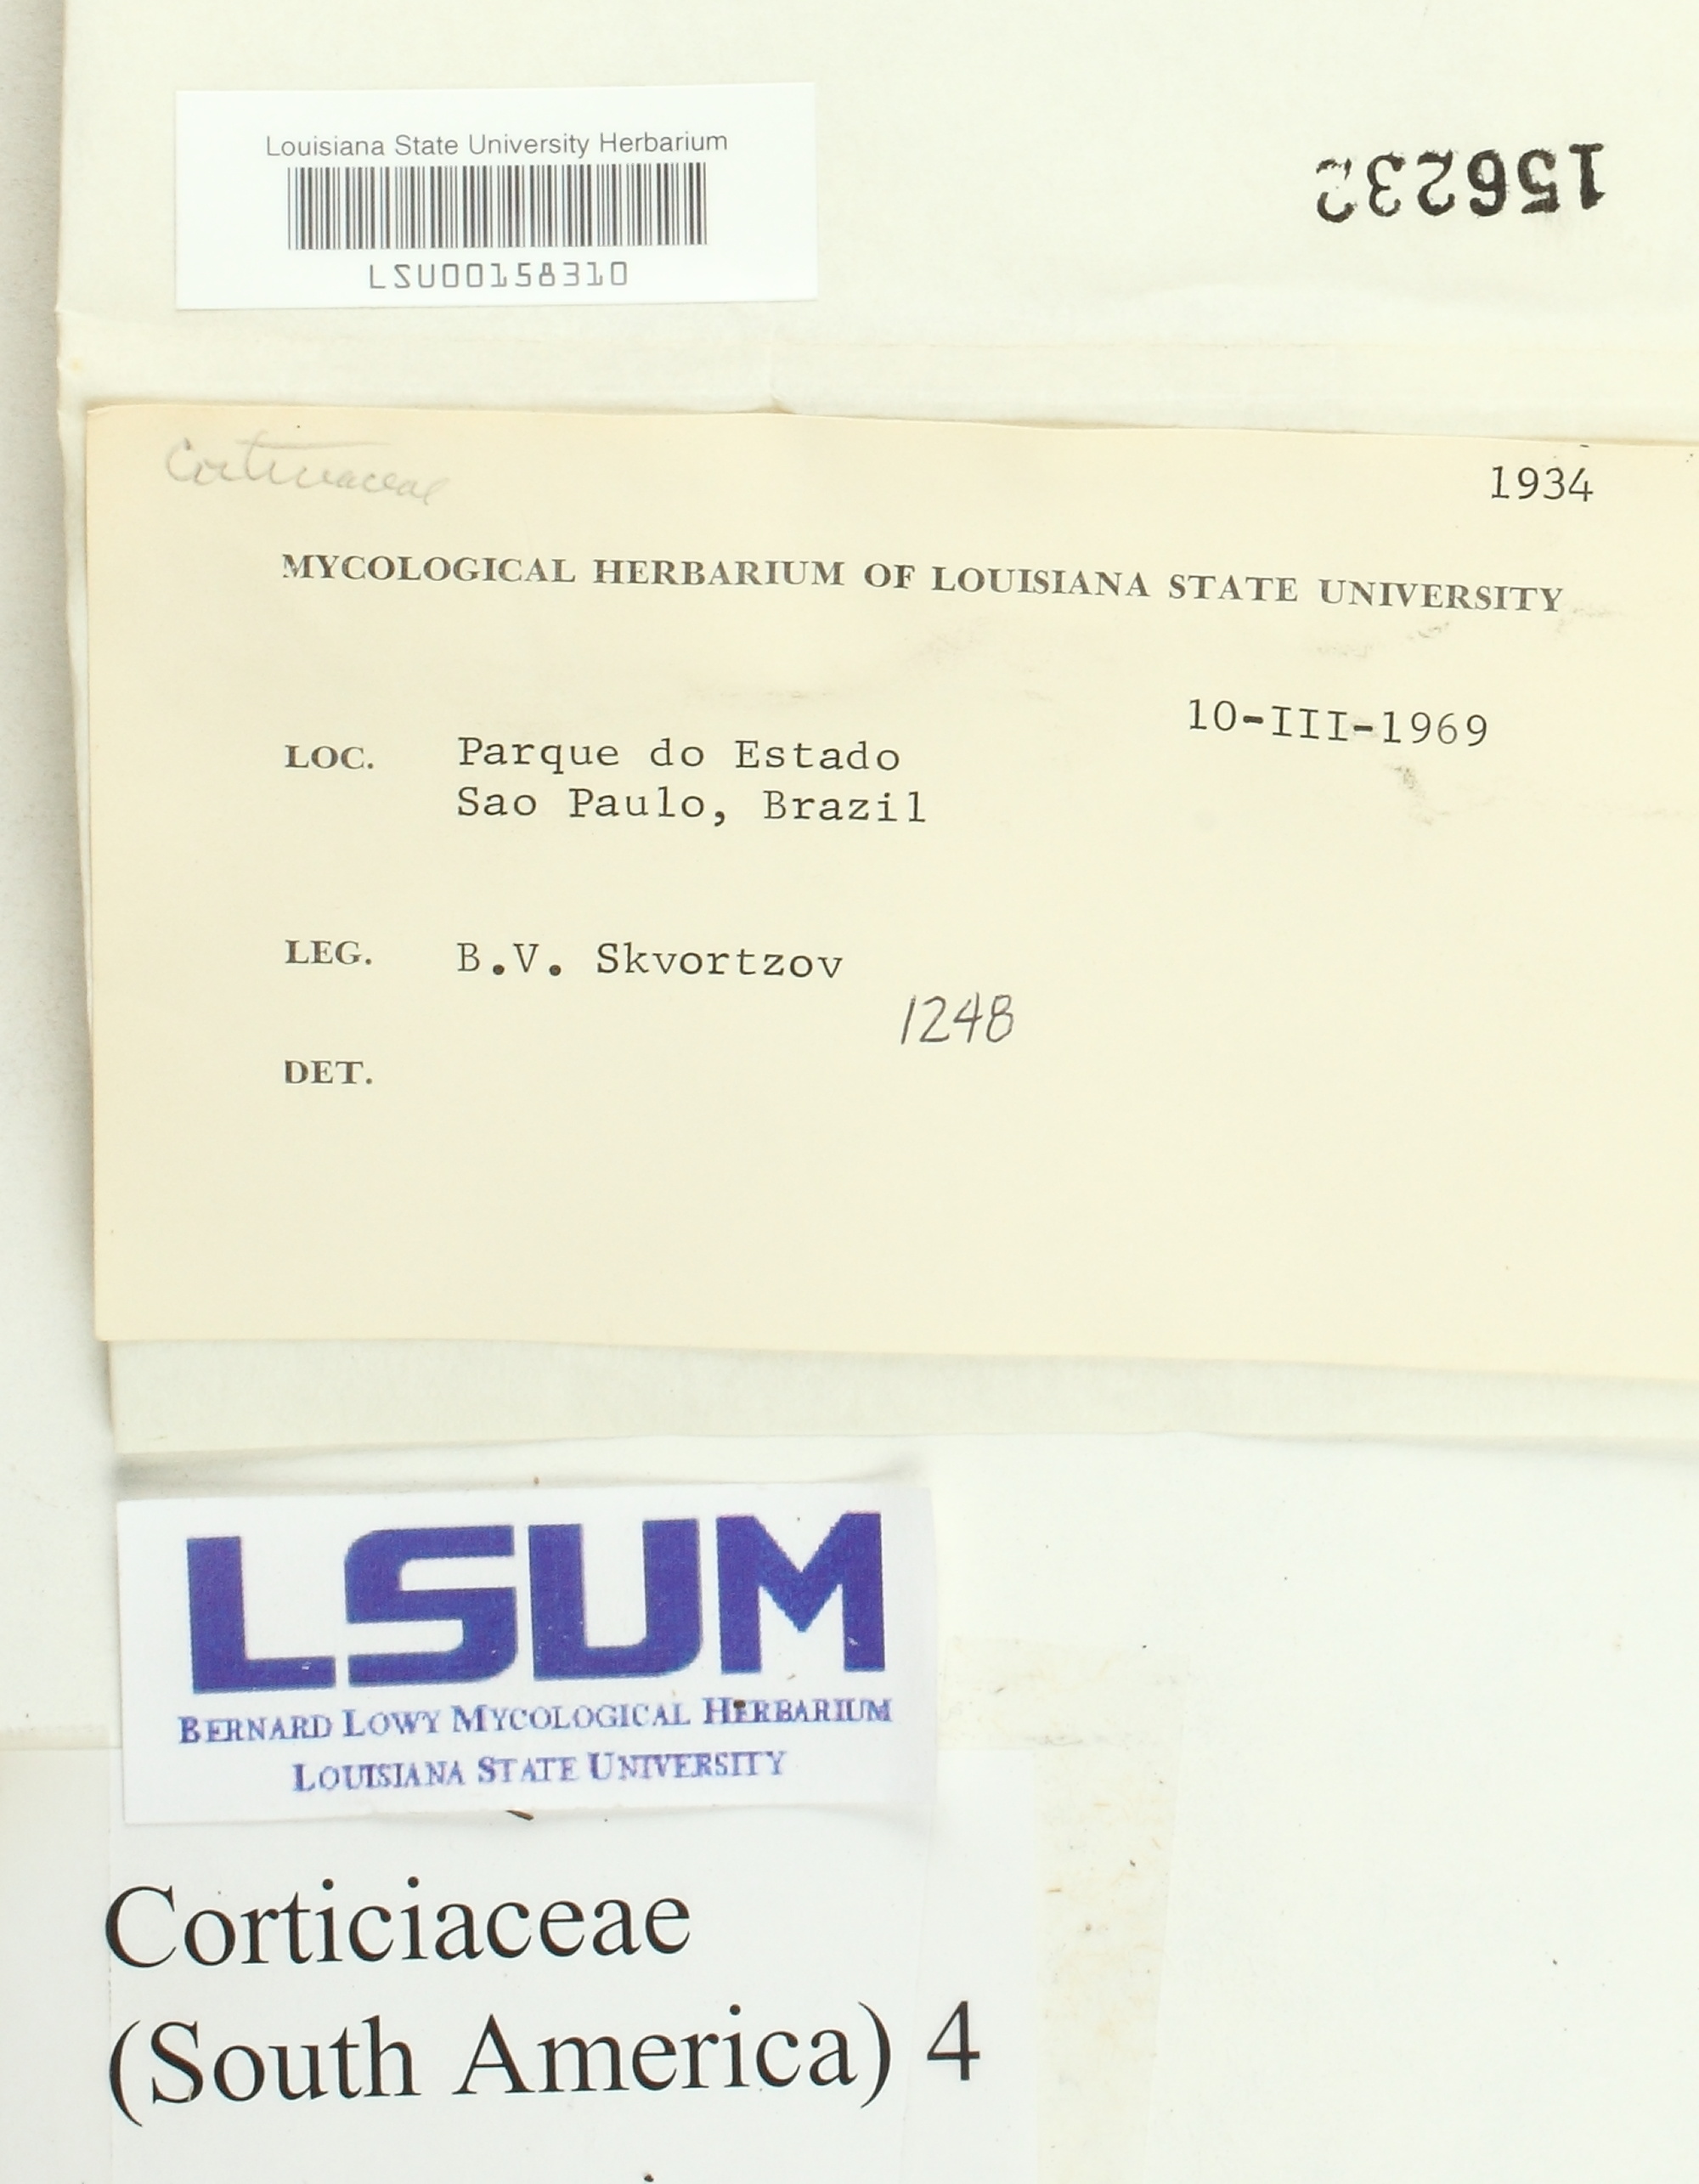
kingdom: Fungi
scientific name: Fungi
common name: Fungi
